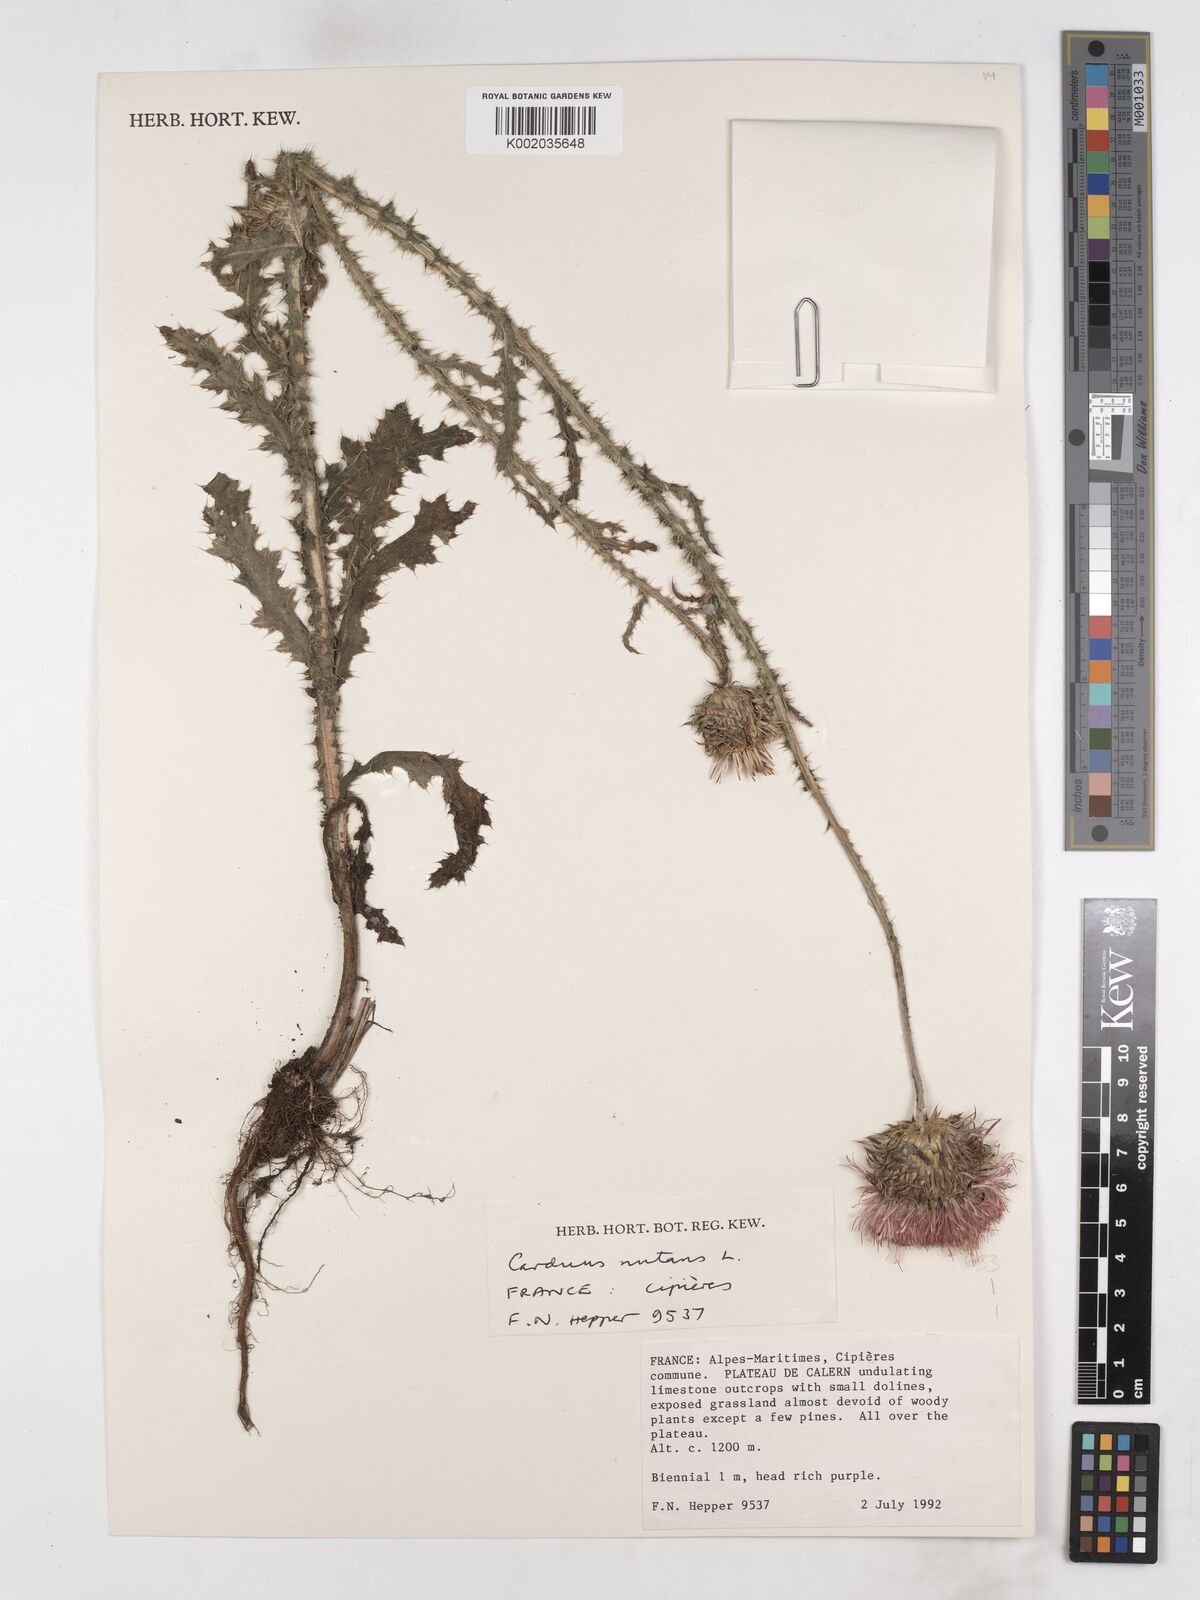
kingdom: Plantae
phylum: Tracheophyta
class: Magnoliopsida
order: Asterales
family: Asteraceae
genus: Carduus
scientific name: Carduus nutans
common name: Musk thistle
